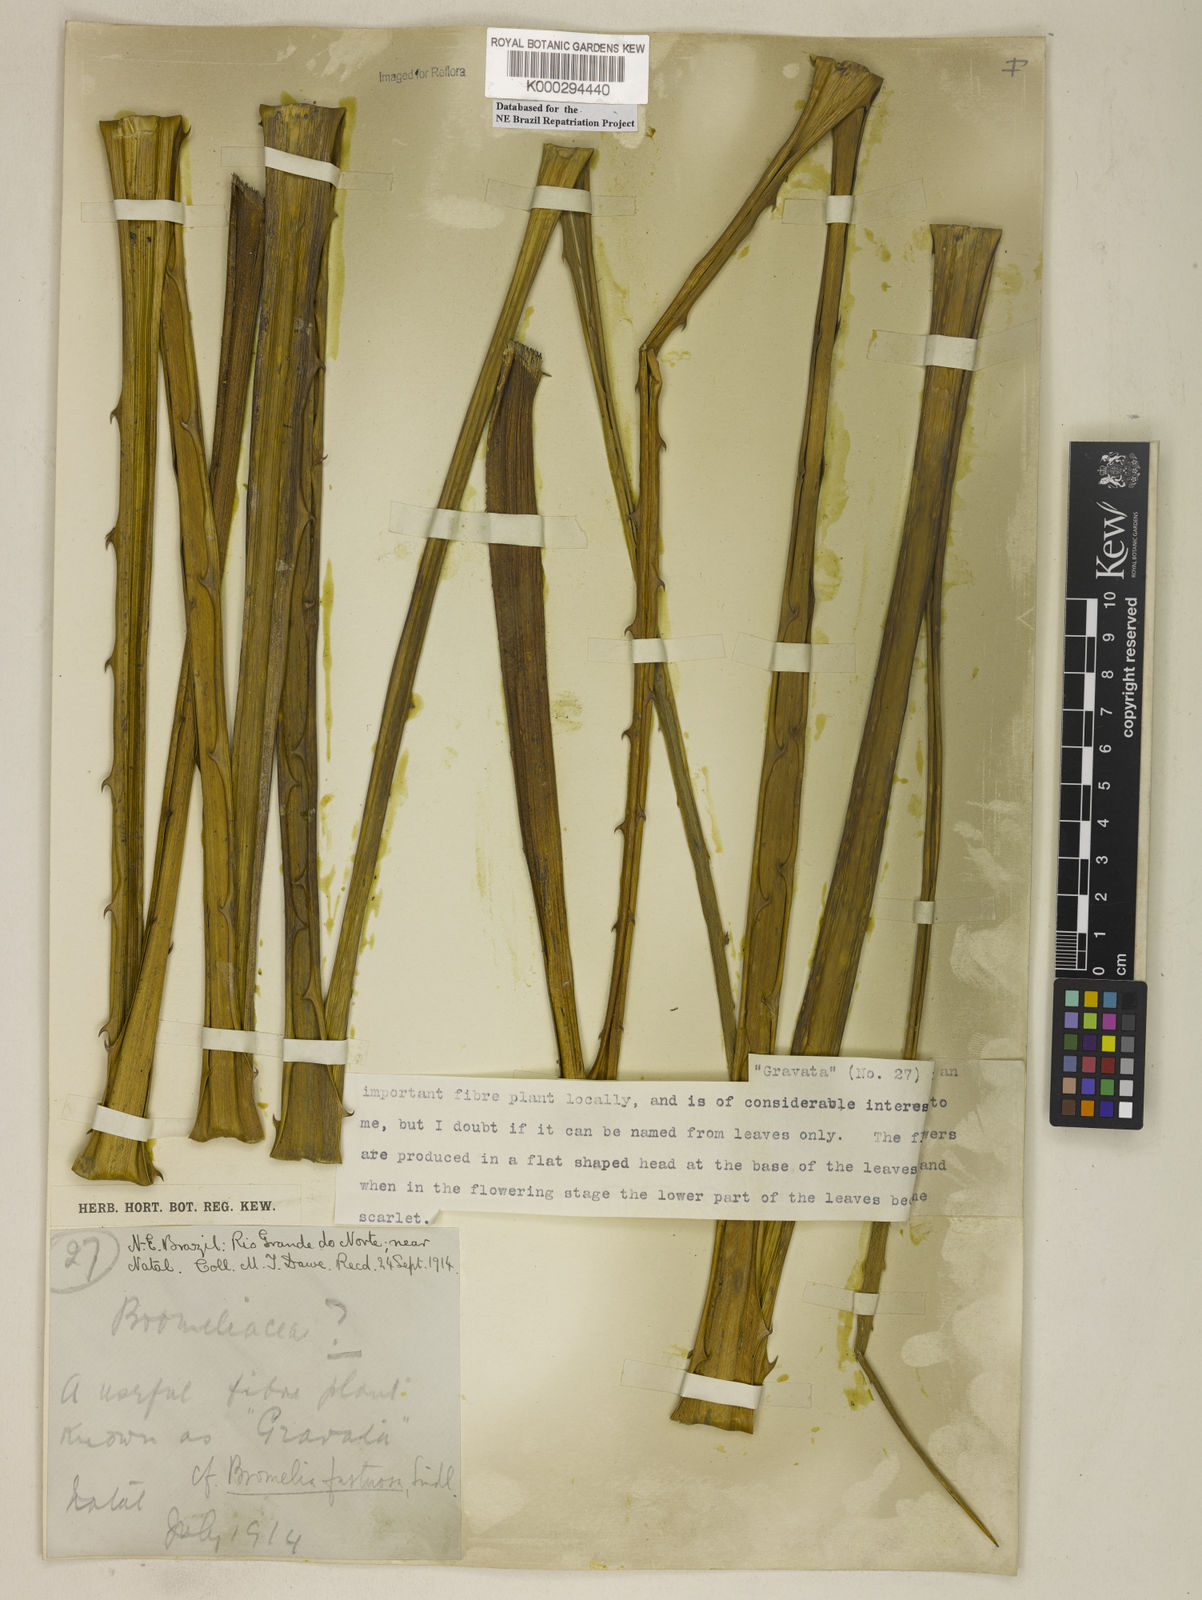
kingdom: Plantae
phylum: Tracheophyta
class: Liliopsida
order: Poales
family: Bromeliaceae
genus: Bromelia
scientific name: Bromelia antiacantha
